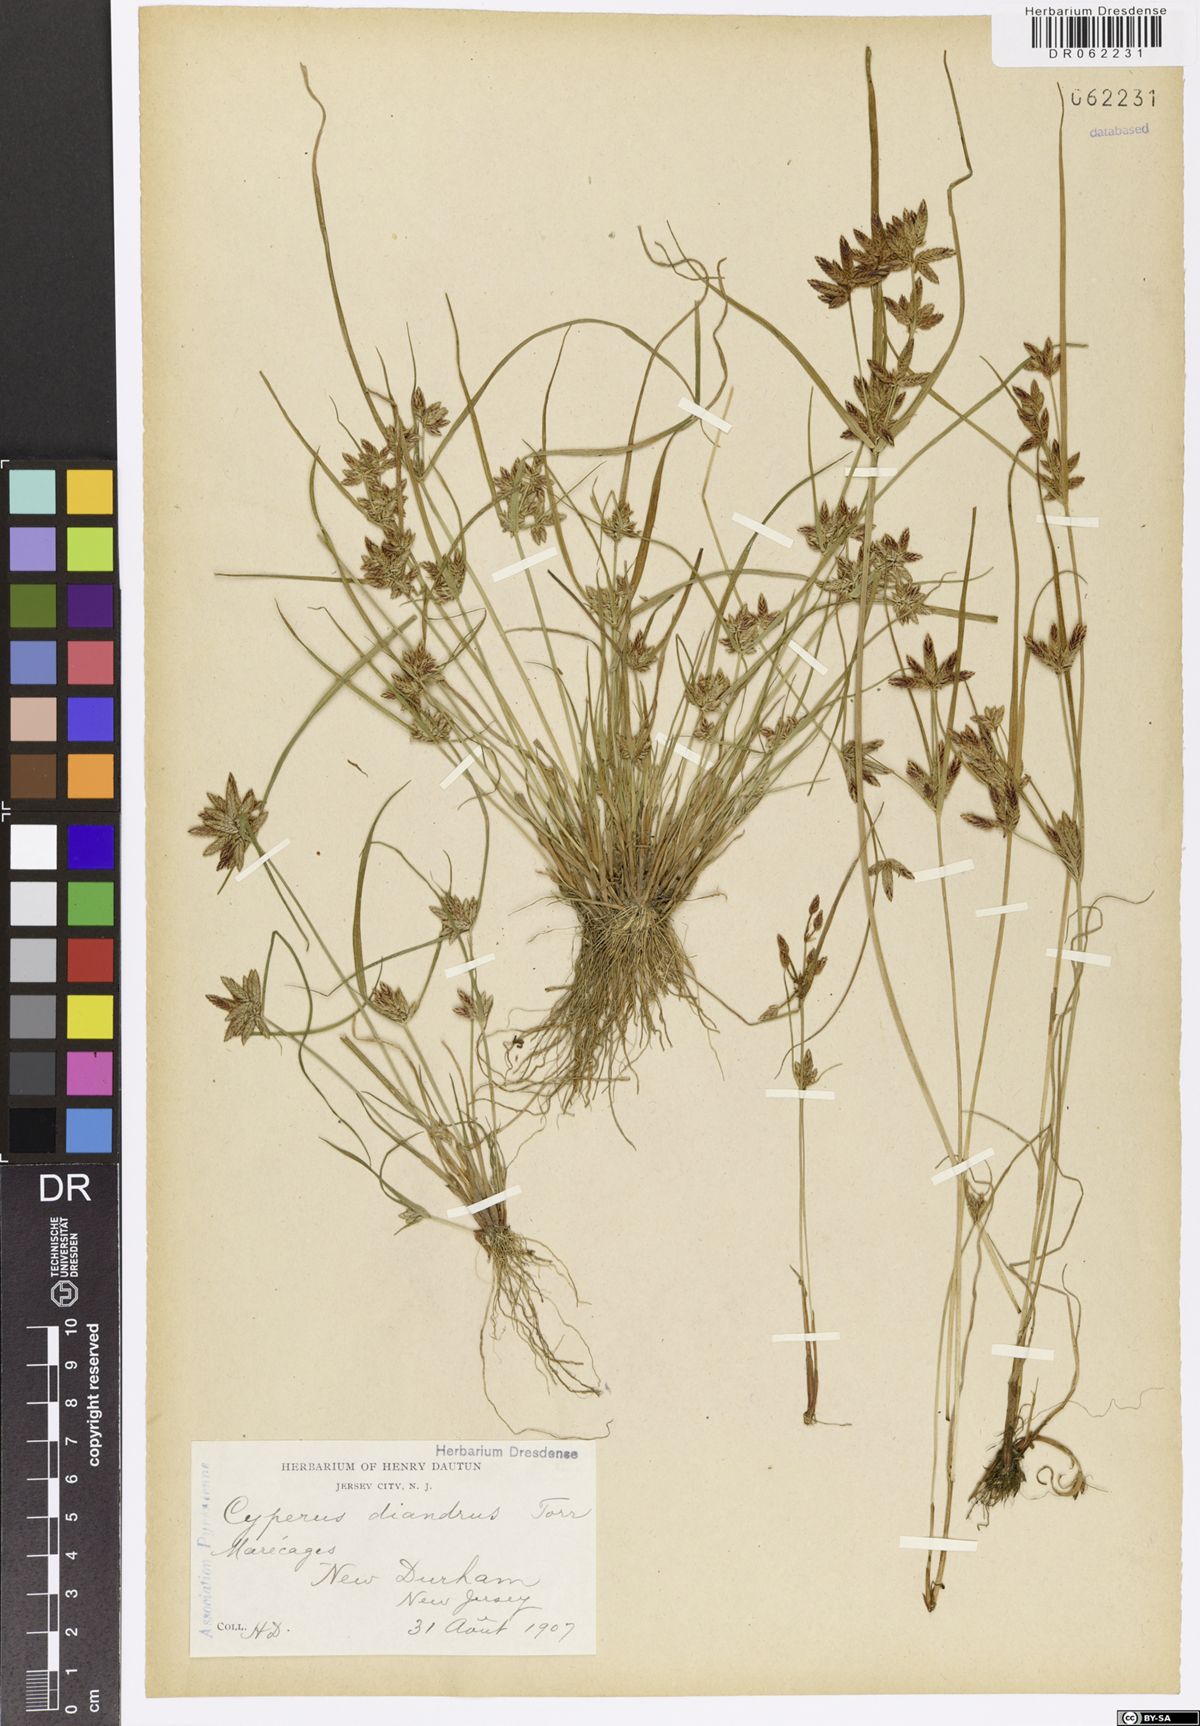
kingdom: Plantae
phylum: Tracheophyta
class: Liliopsida
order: Poales
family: Cyperaceae
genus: Cyperus
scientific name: Cyperus diandrus
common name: Low cyperus
